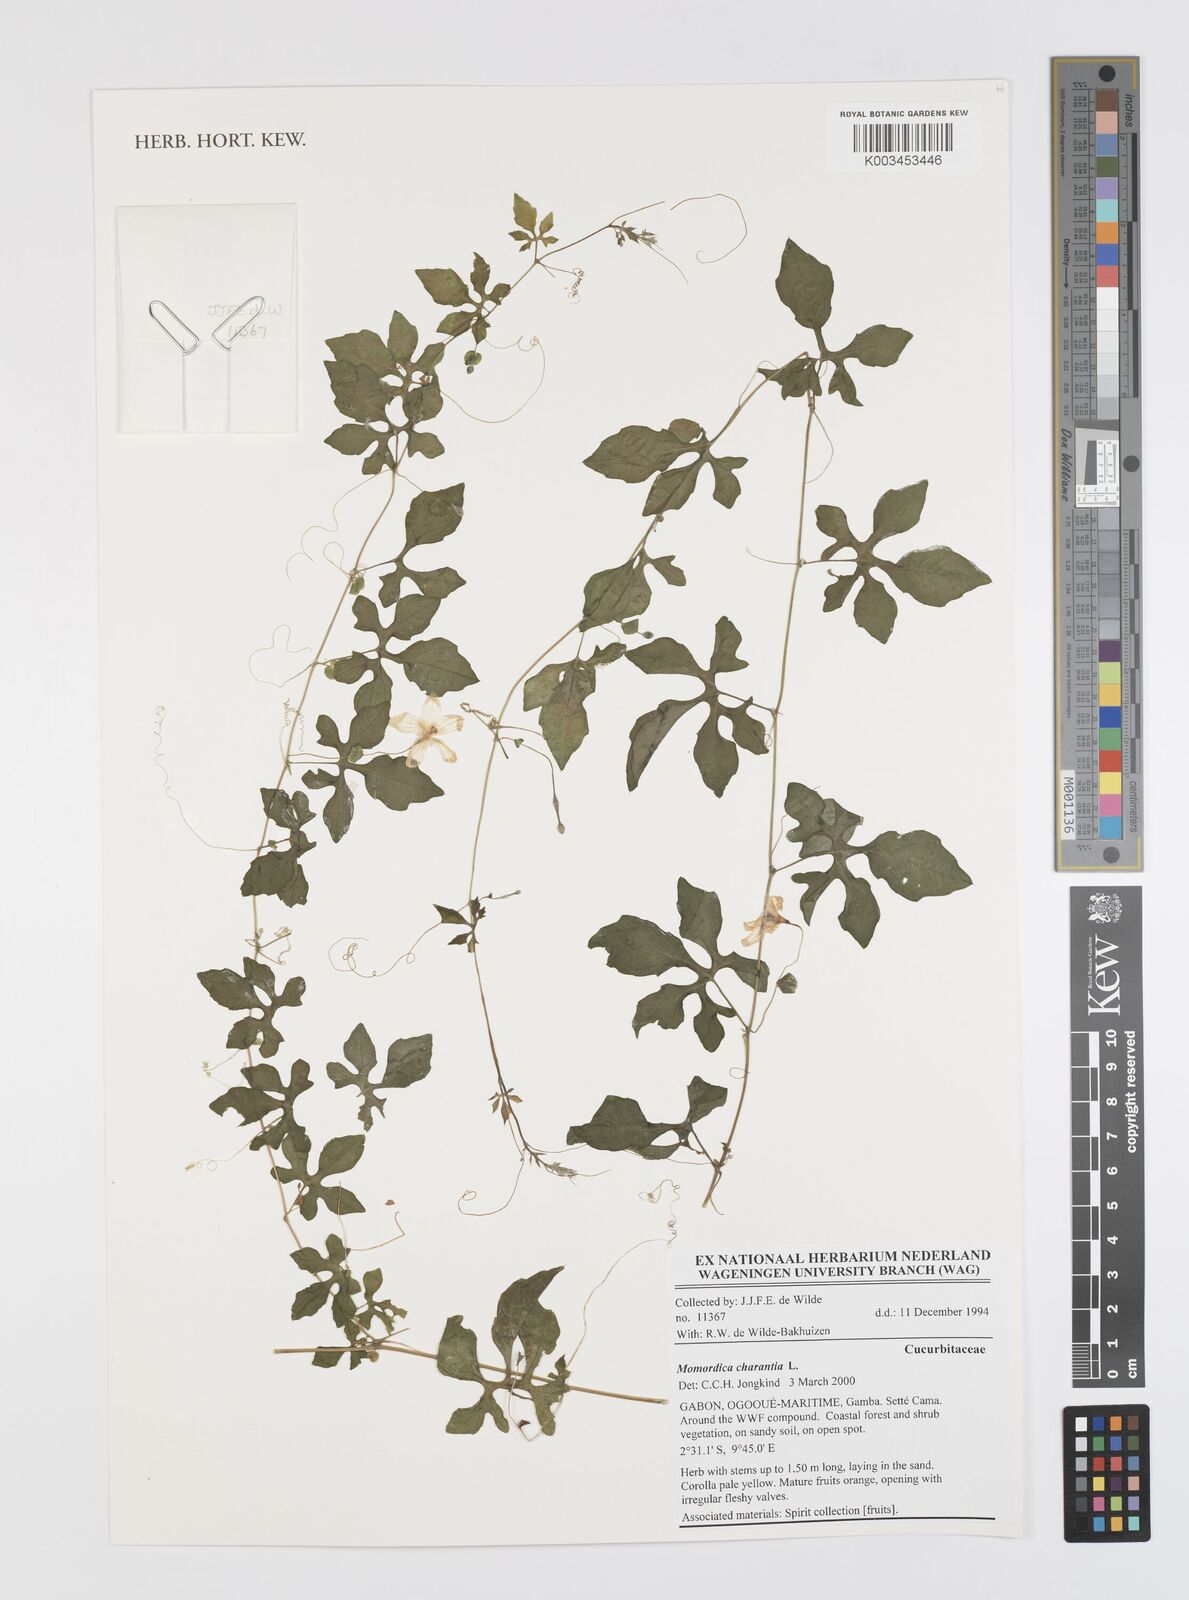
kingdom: Plantae
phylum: Tracheophyta
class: Magnoliopsida
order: Cucurbitales
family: Cucurbitaceae
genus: Momordica
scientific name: Momordica charantia
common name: Balsampear
